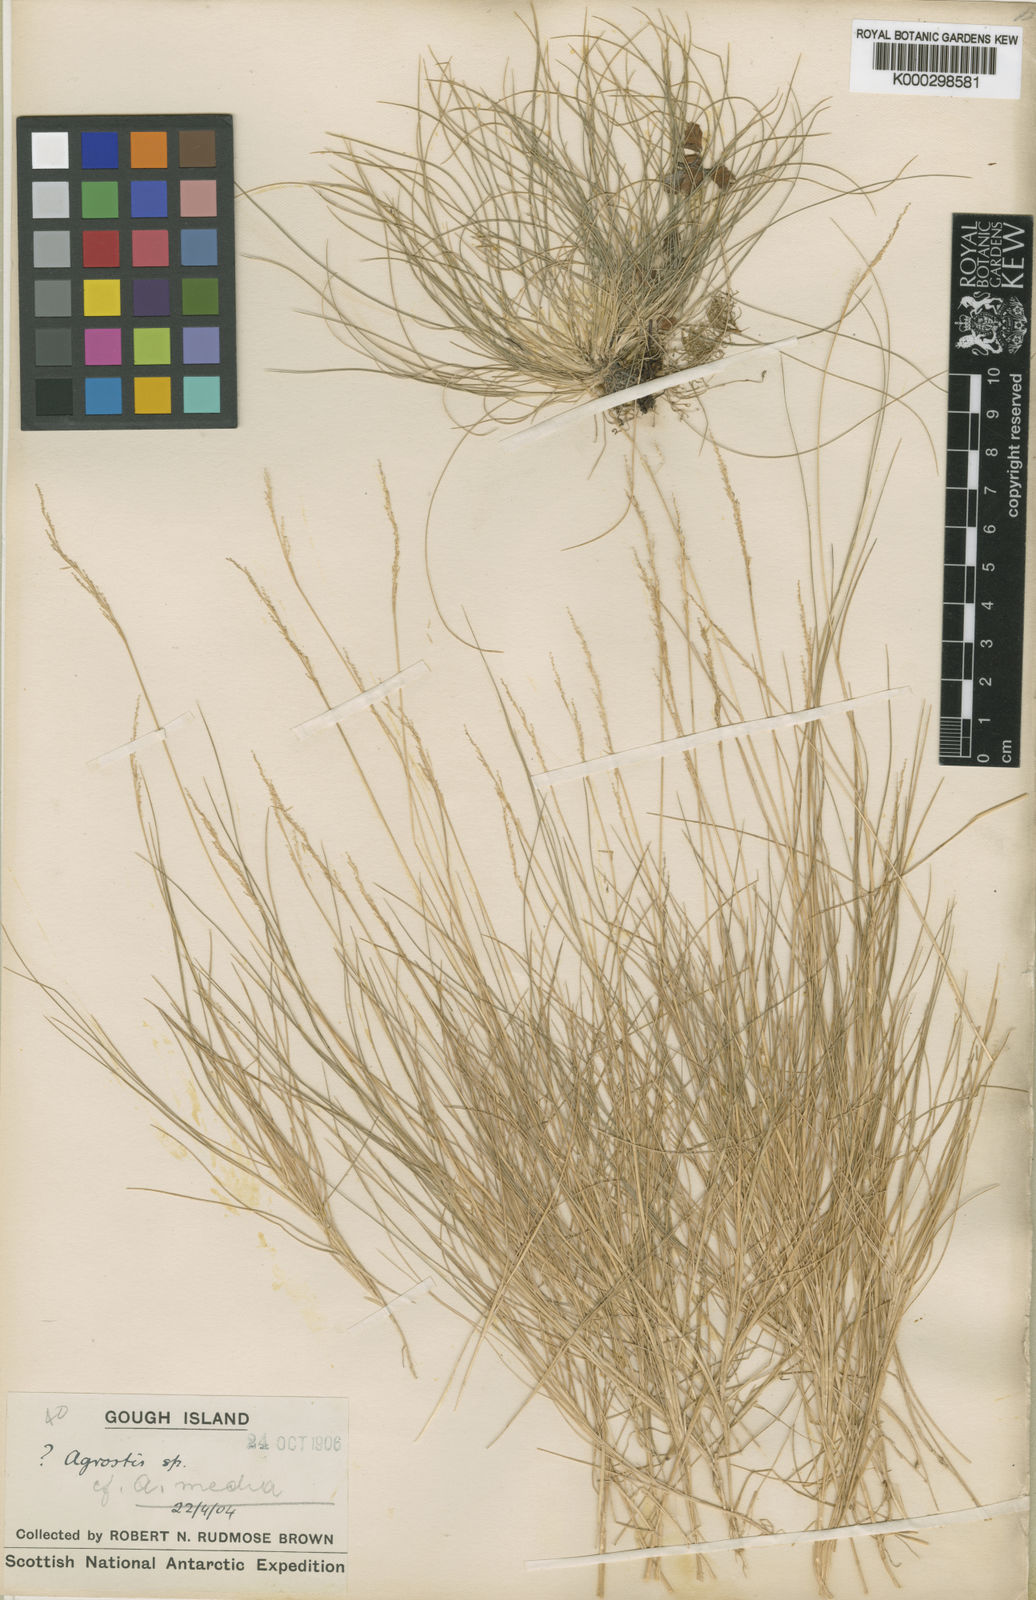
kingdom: Plantae
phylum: Tracheophyta
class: Liliopsida
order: Poales
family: Poaceae
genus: Agrostis
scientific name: Agrostis media
